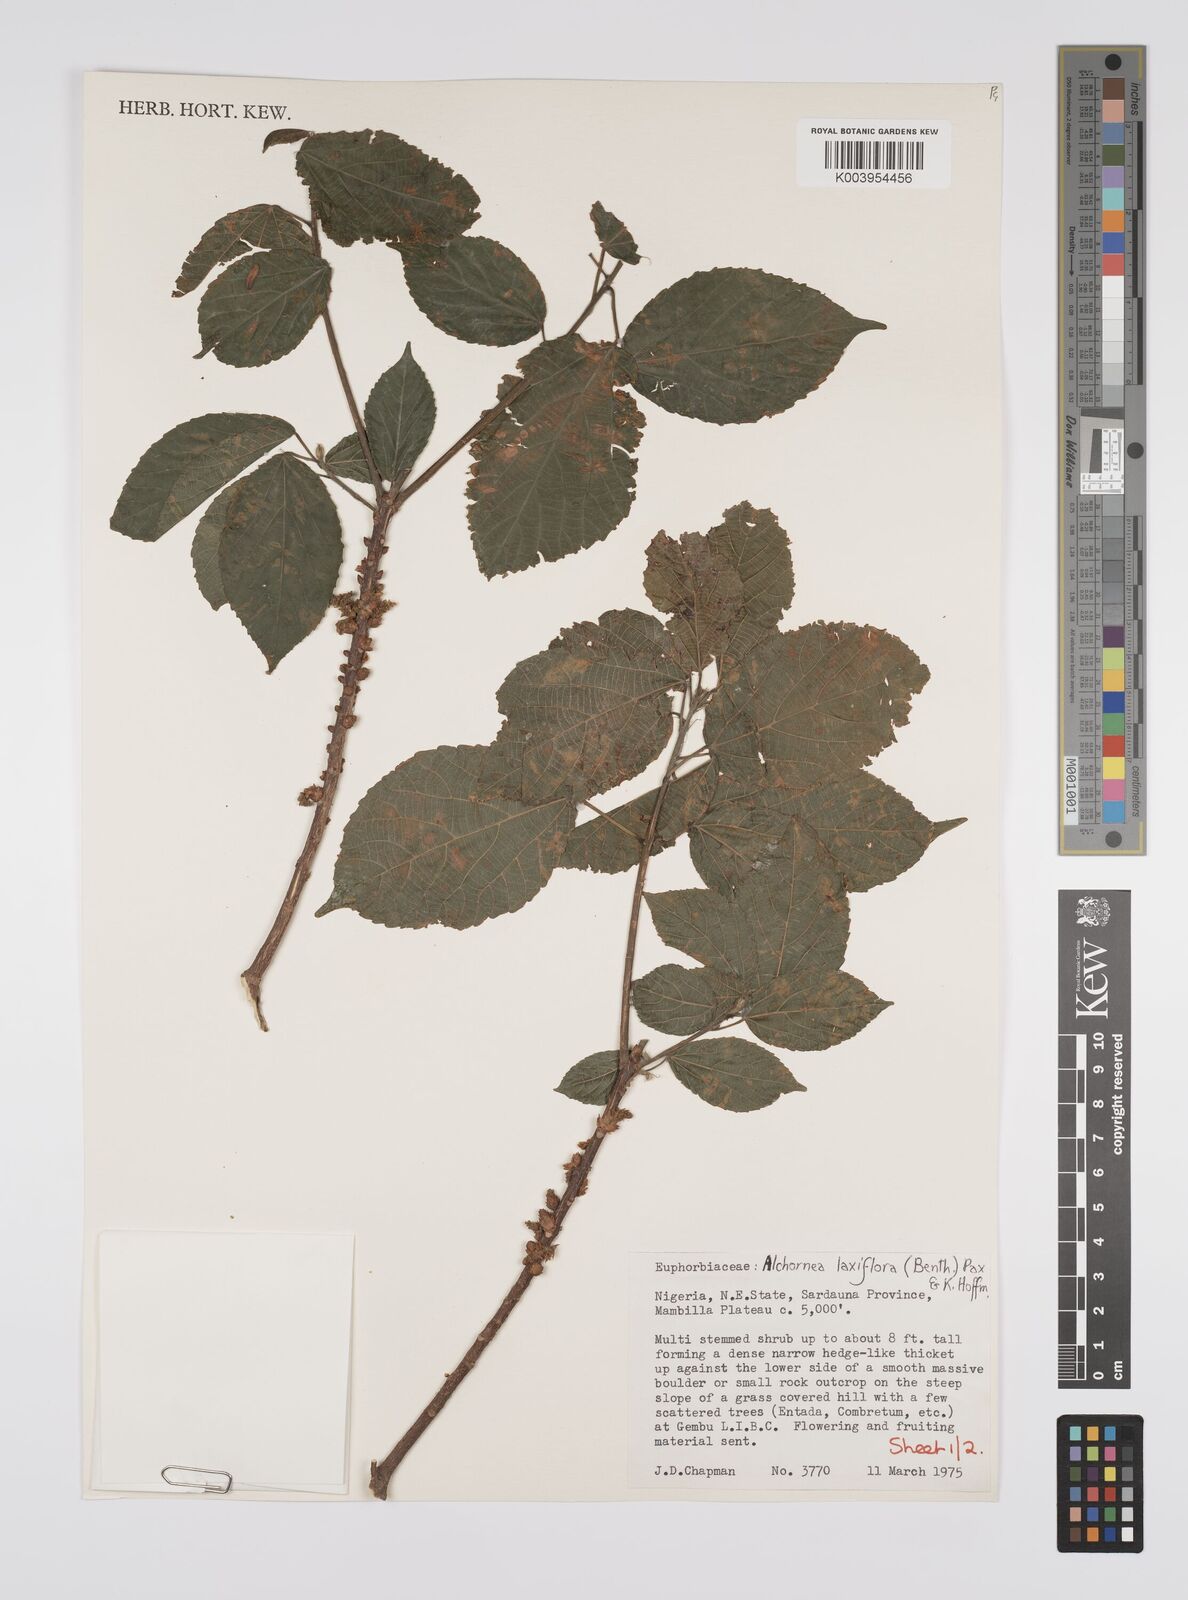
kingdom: Plantae
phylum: Tracheophyta
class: Magnoliopsida
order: Malpighiales
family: Euphorbiaceae
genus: Alchornea
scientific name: Alchornea laxiflora
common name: Lowveld bead-string
